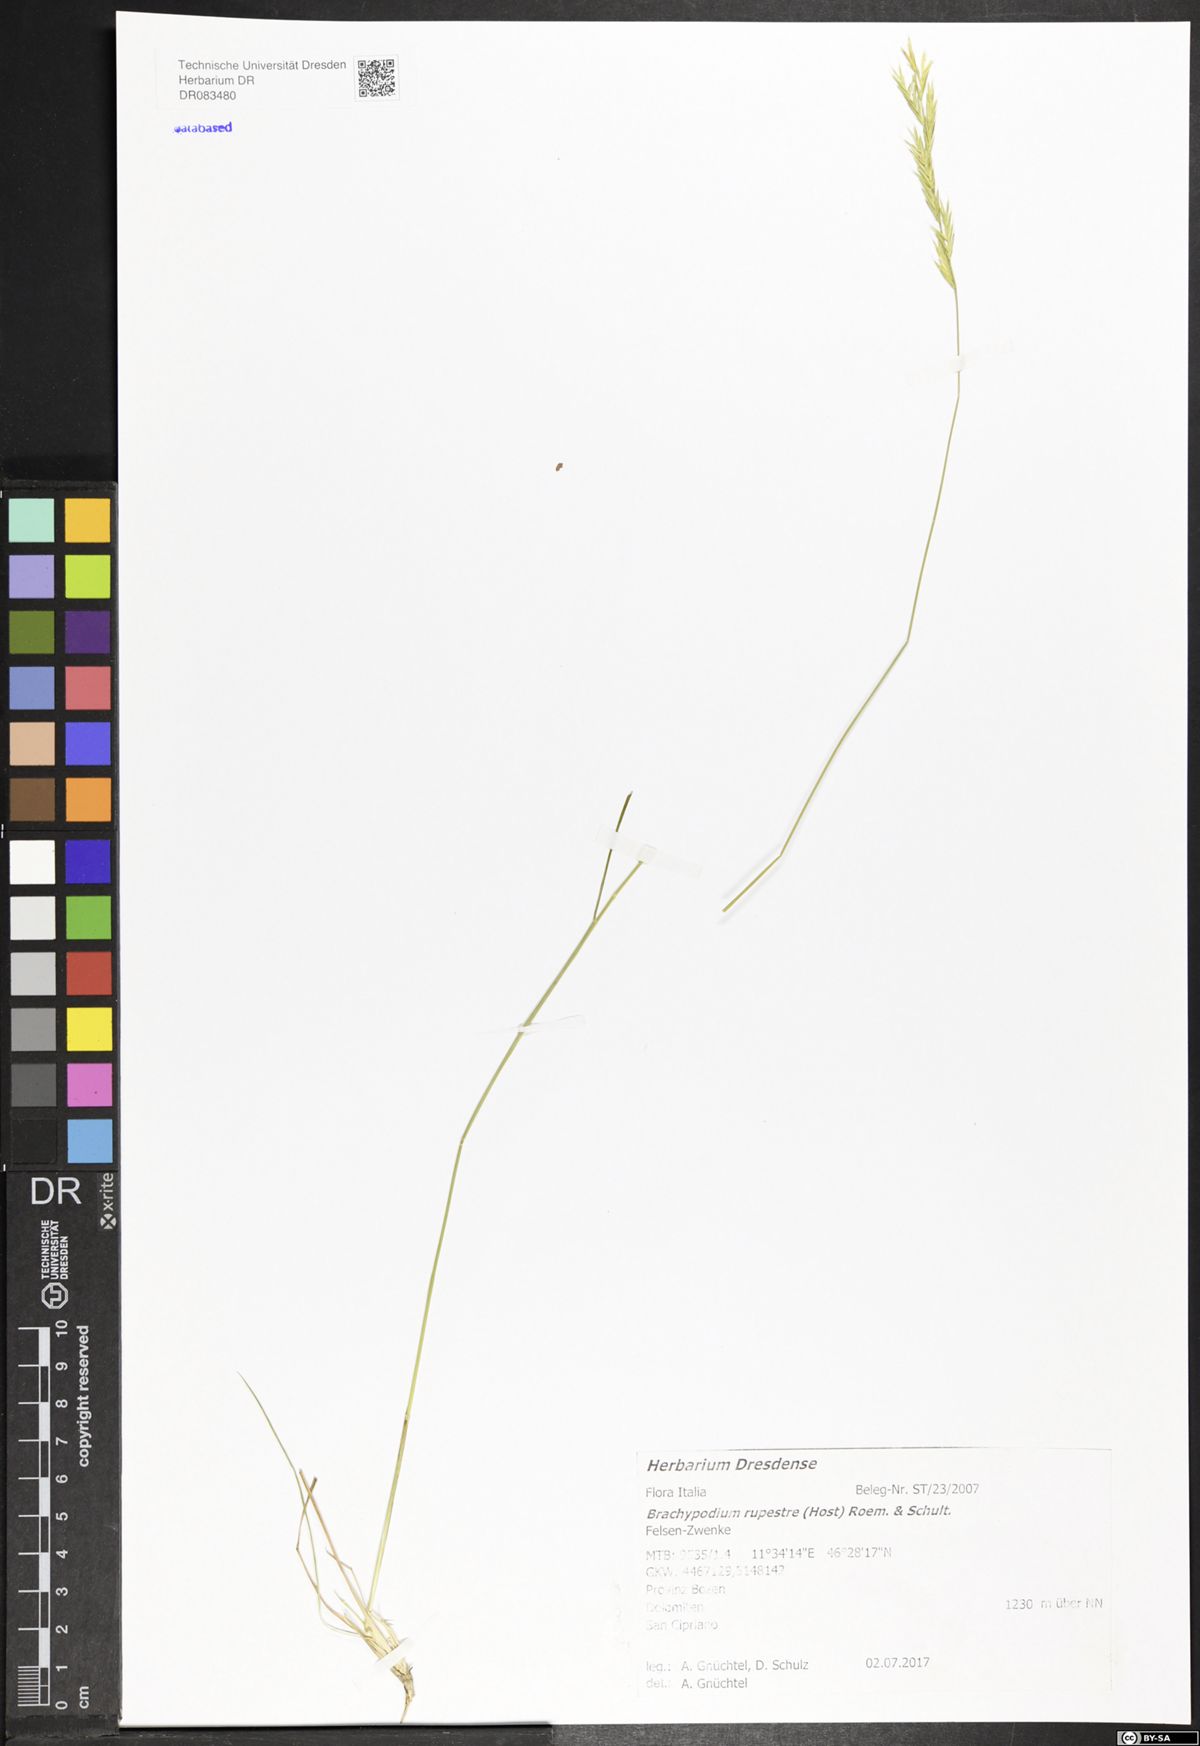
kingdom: Plantae
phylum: Tracheophyta
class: Liliopsida
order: Poales
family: Poaceae
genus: Brachypodium
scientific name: Brachypodium pinnatum
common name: Tor grass
